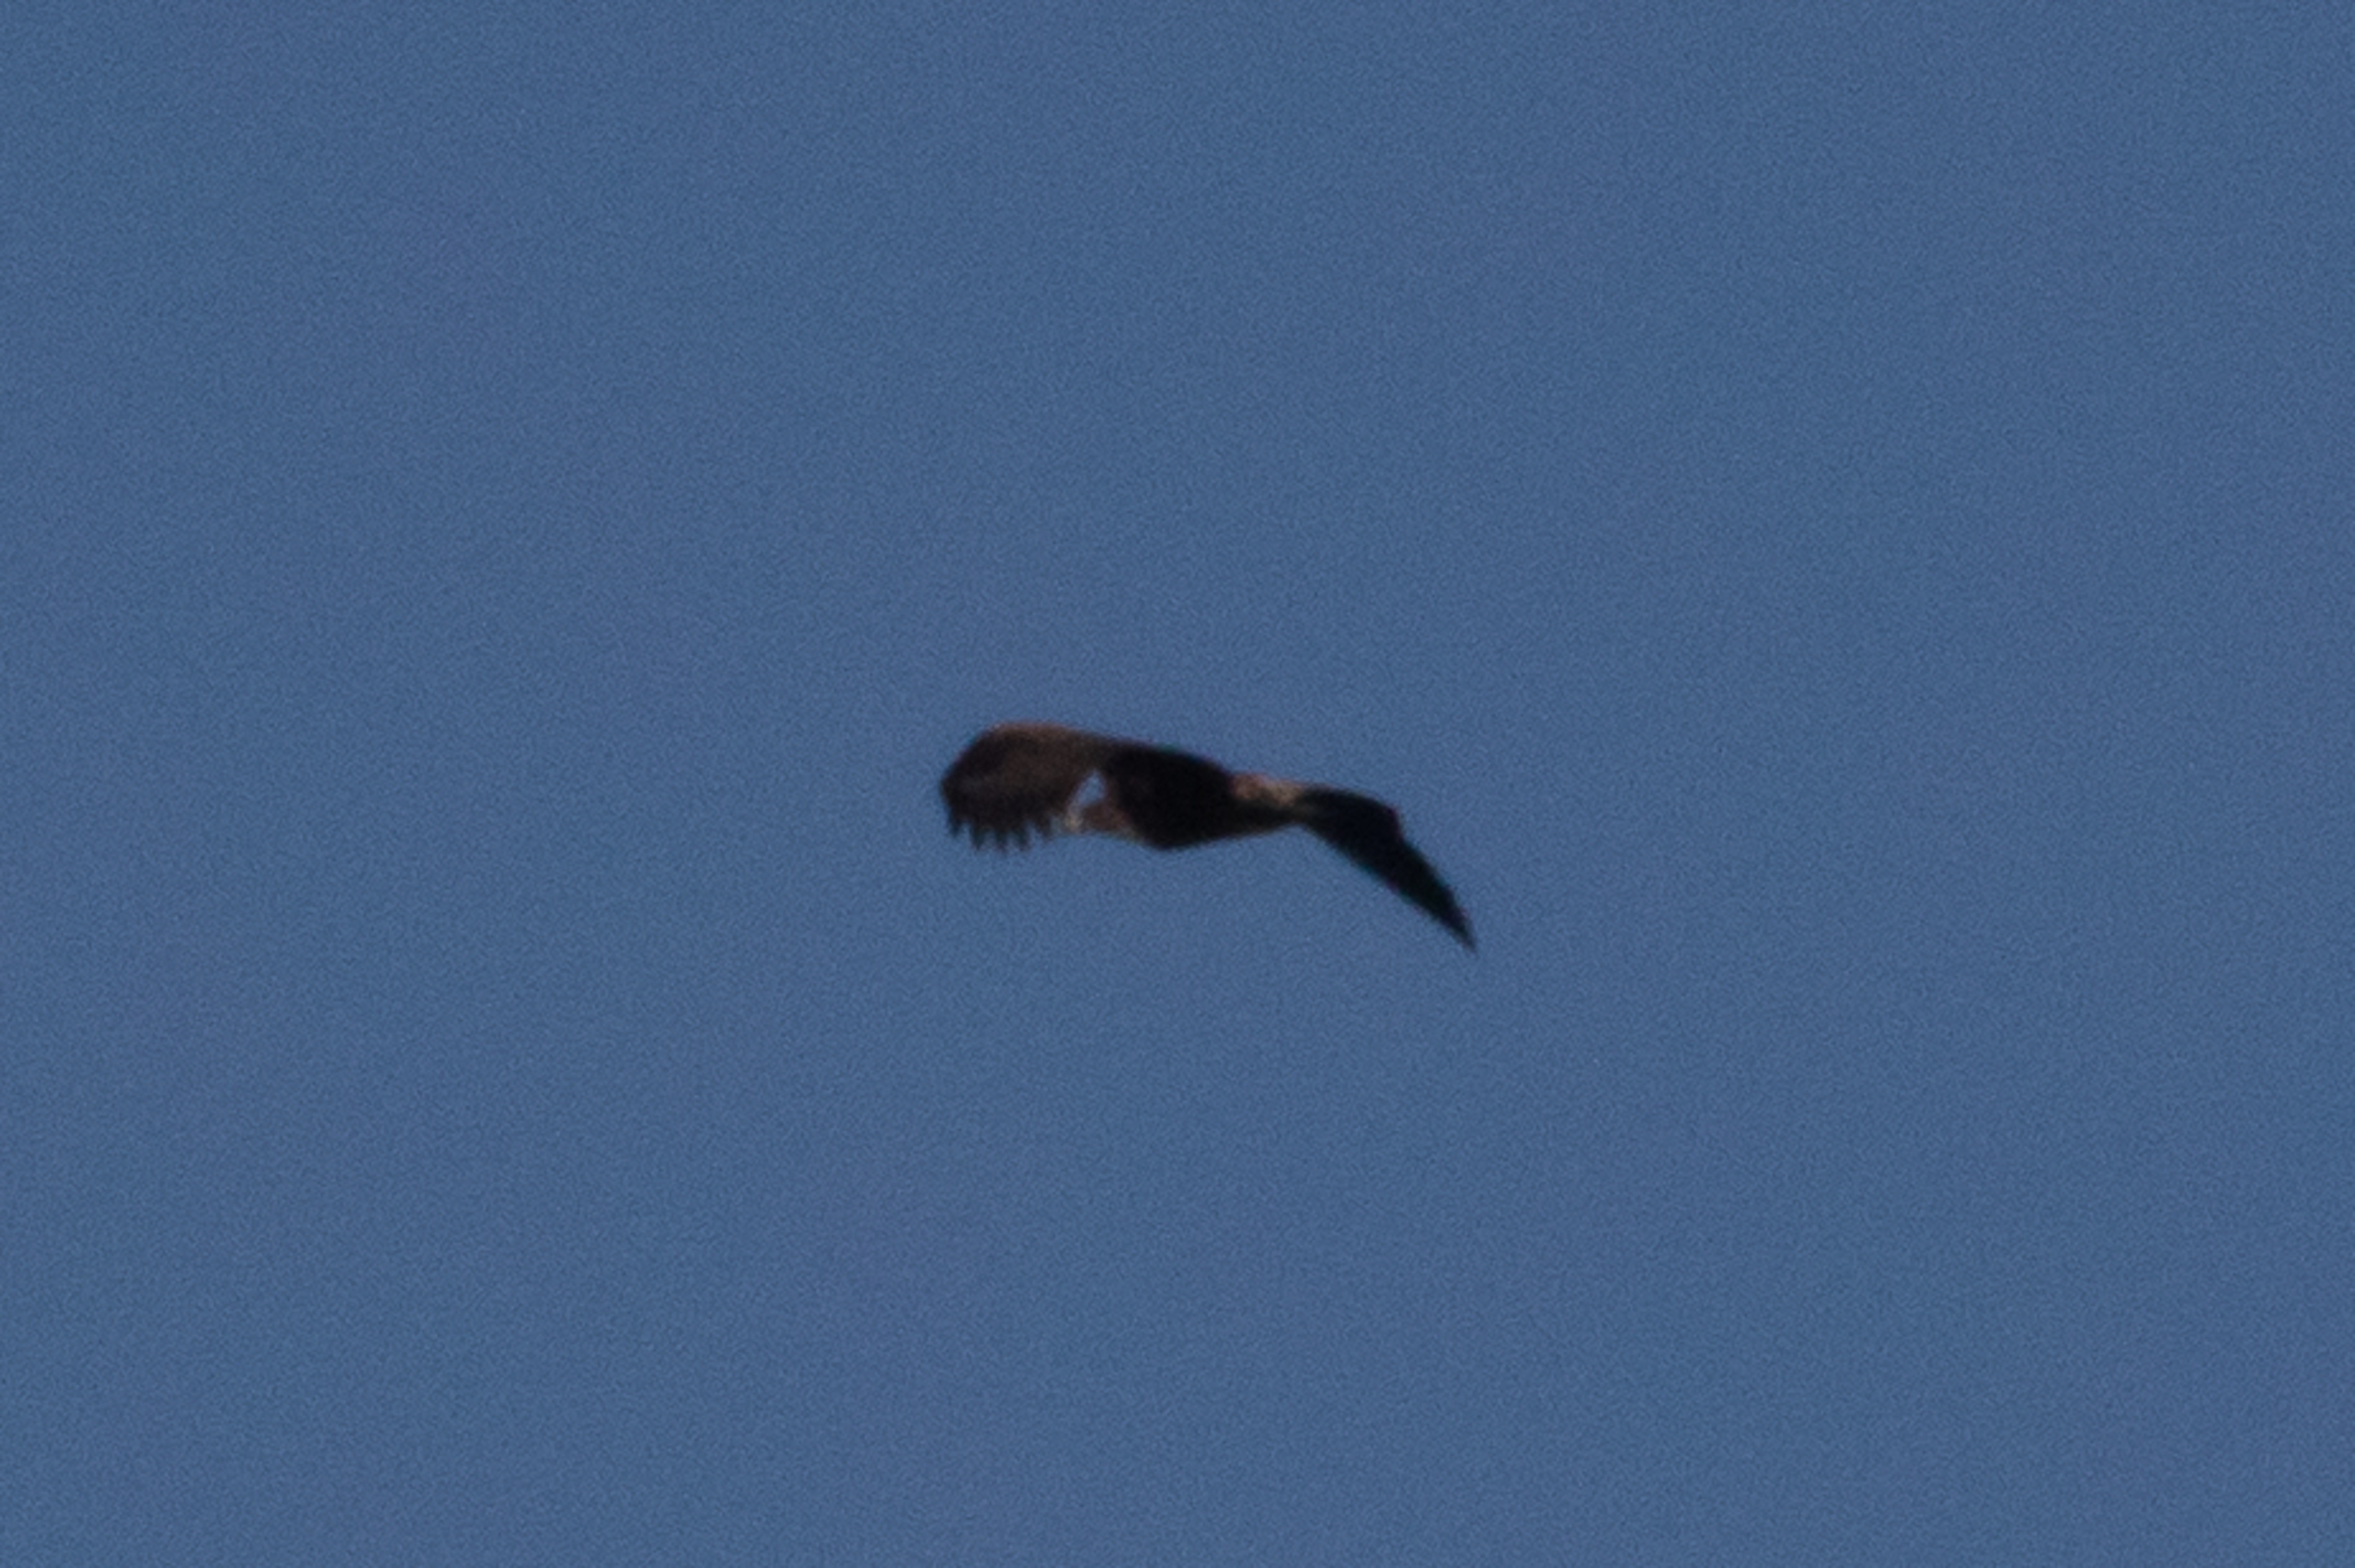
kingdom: Animalia
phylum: Chordata
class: Aves
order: Accipitriformes
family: Accipitridae
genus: Haliaeetus
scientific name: Haliaeetus albicilla
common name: Havørn
